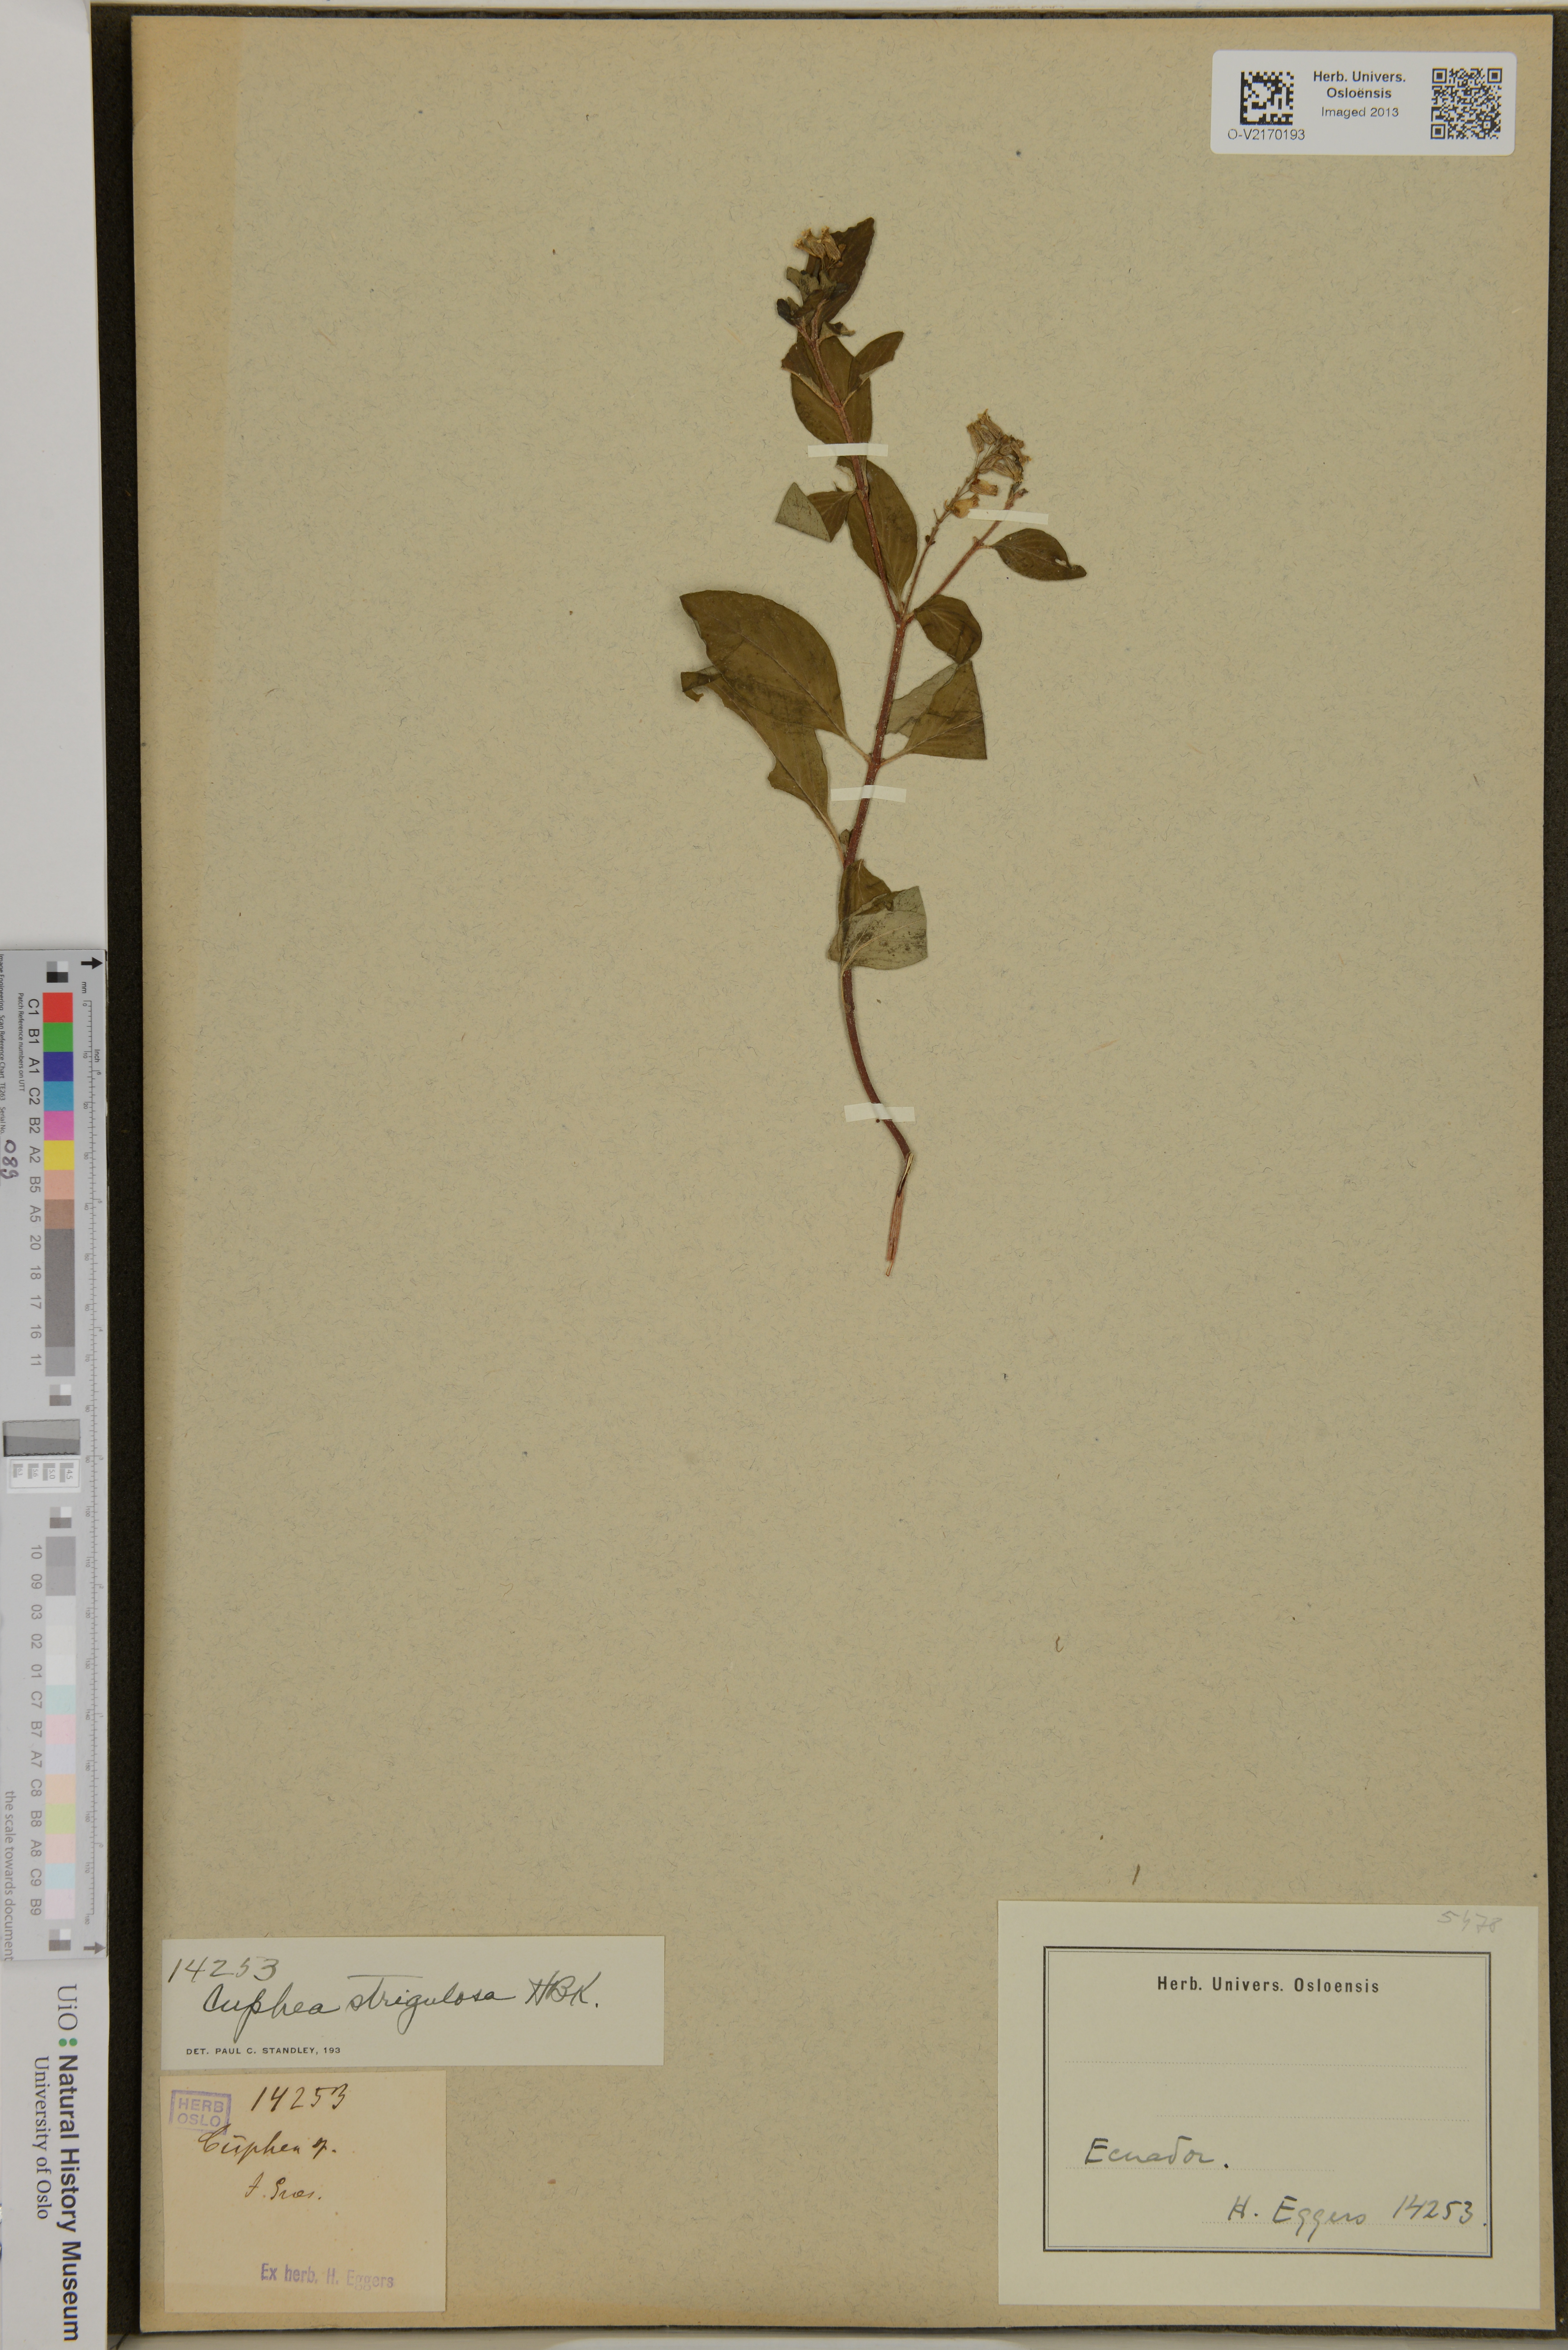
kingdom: Plantae
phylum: Tracheophyta
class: Magnoliopsida
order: Myrtales
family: Lythraceae
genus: Cuphea
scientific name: Cuphea strigulosa
